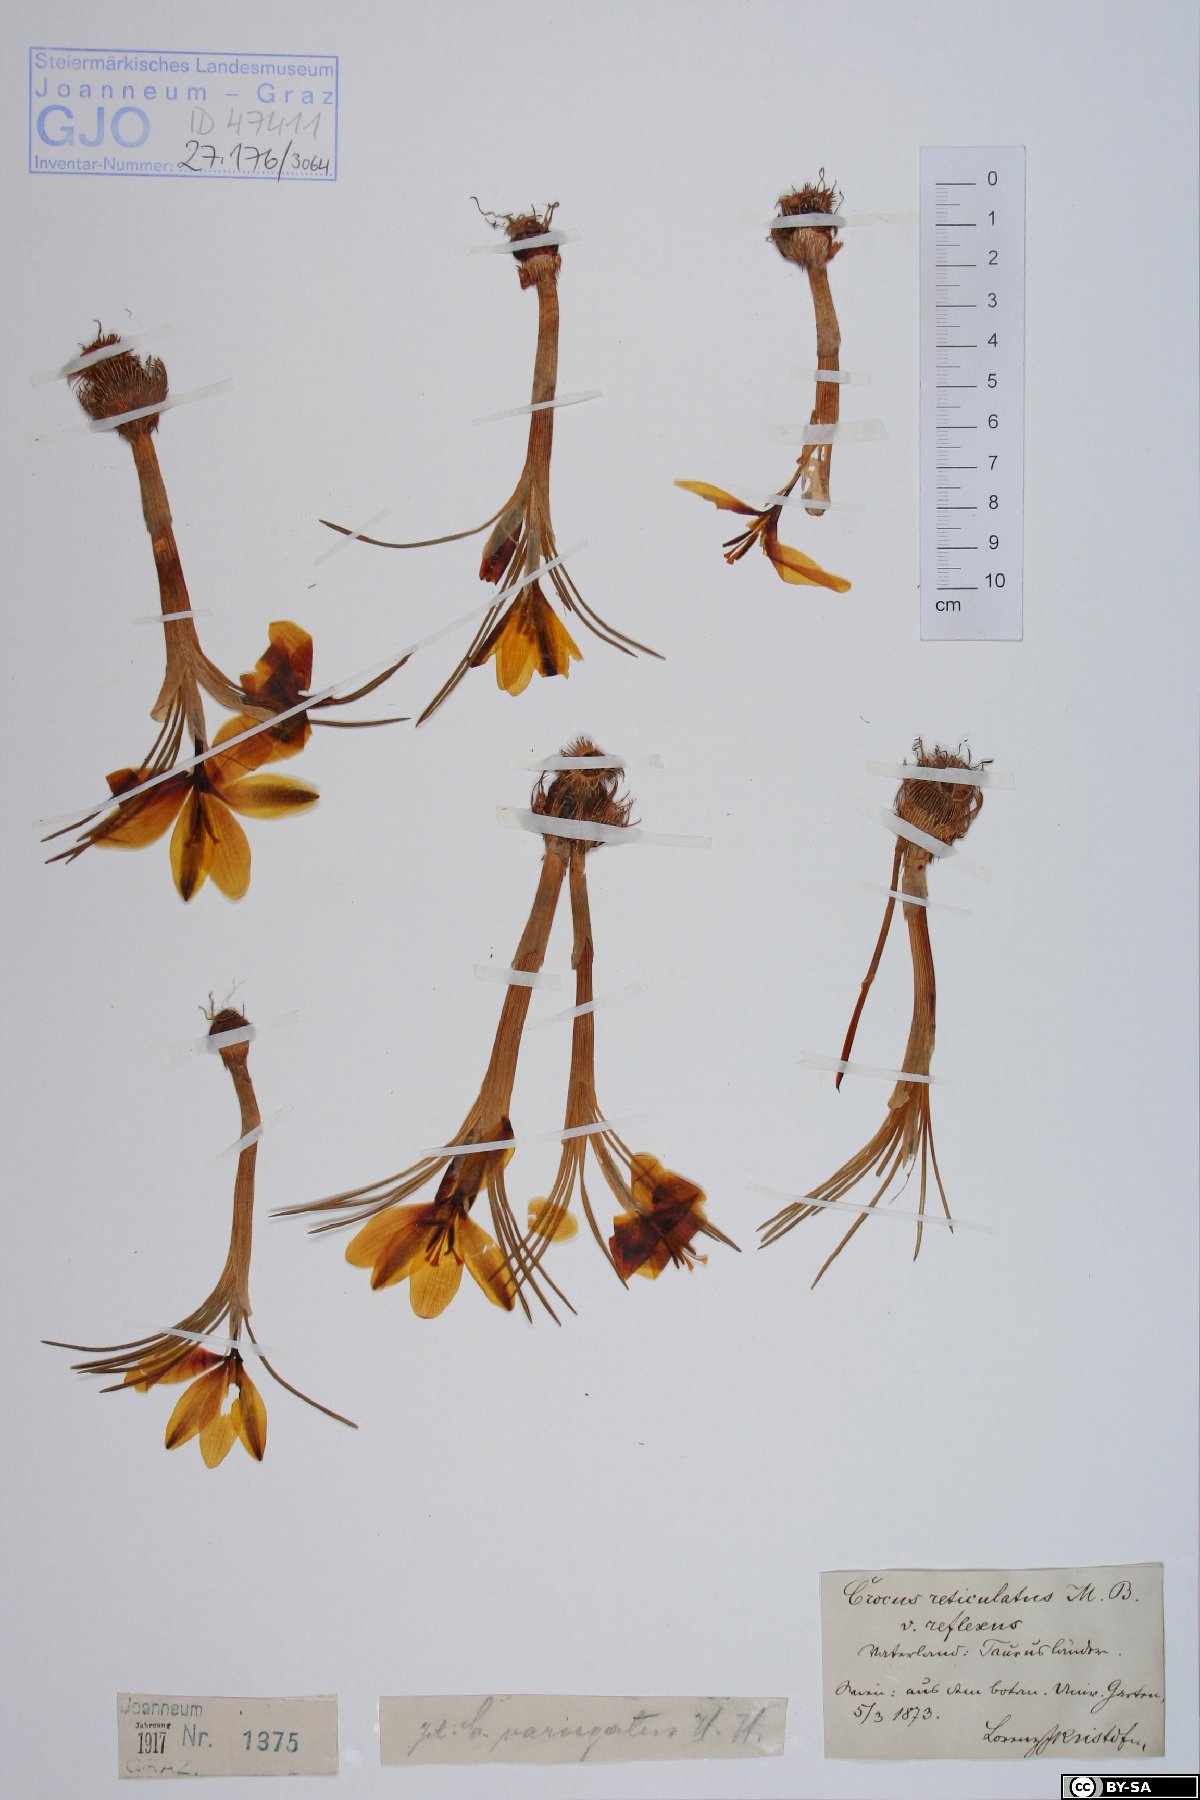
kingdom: Plantae
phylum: Tracheophyta
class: Liliopsida
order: Asparagales
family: Iridaceae
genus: Crocus
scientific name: Crocus angustifolius
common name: Cloth of gold
